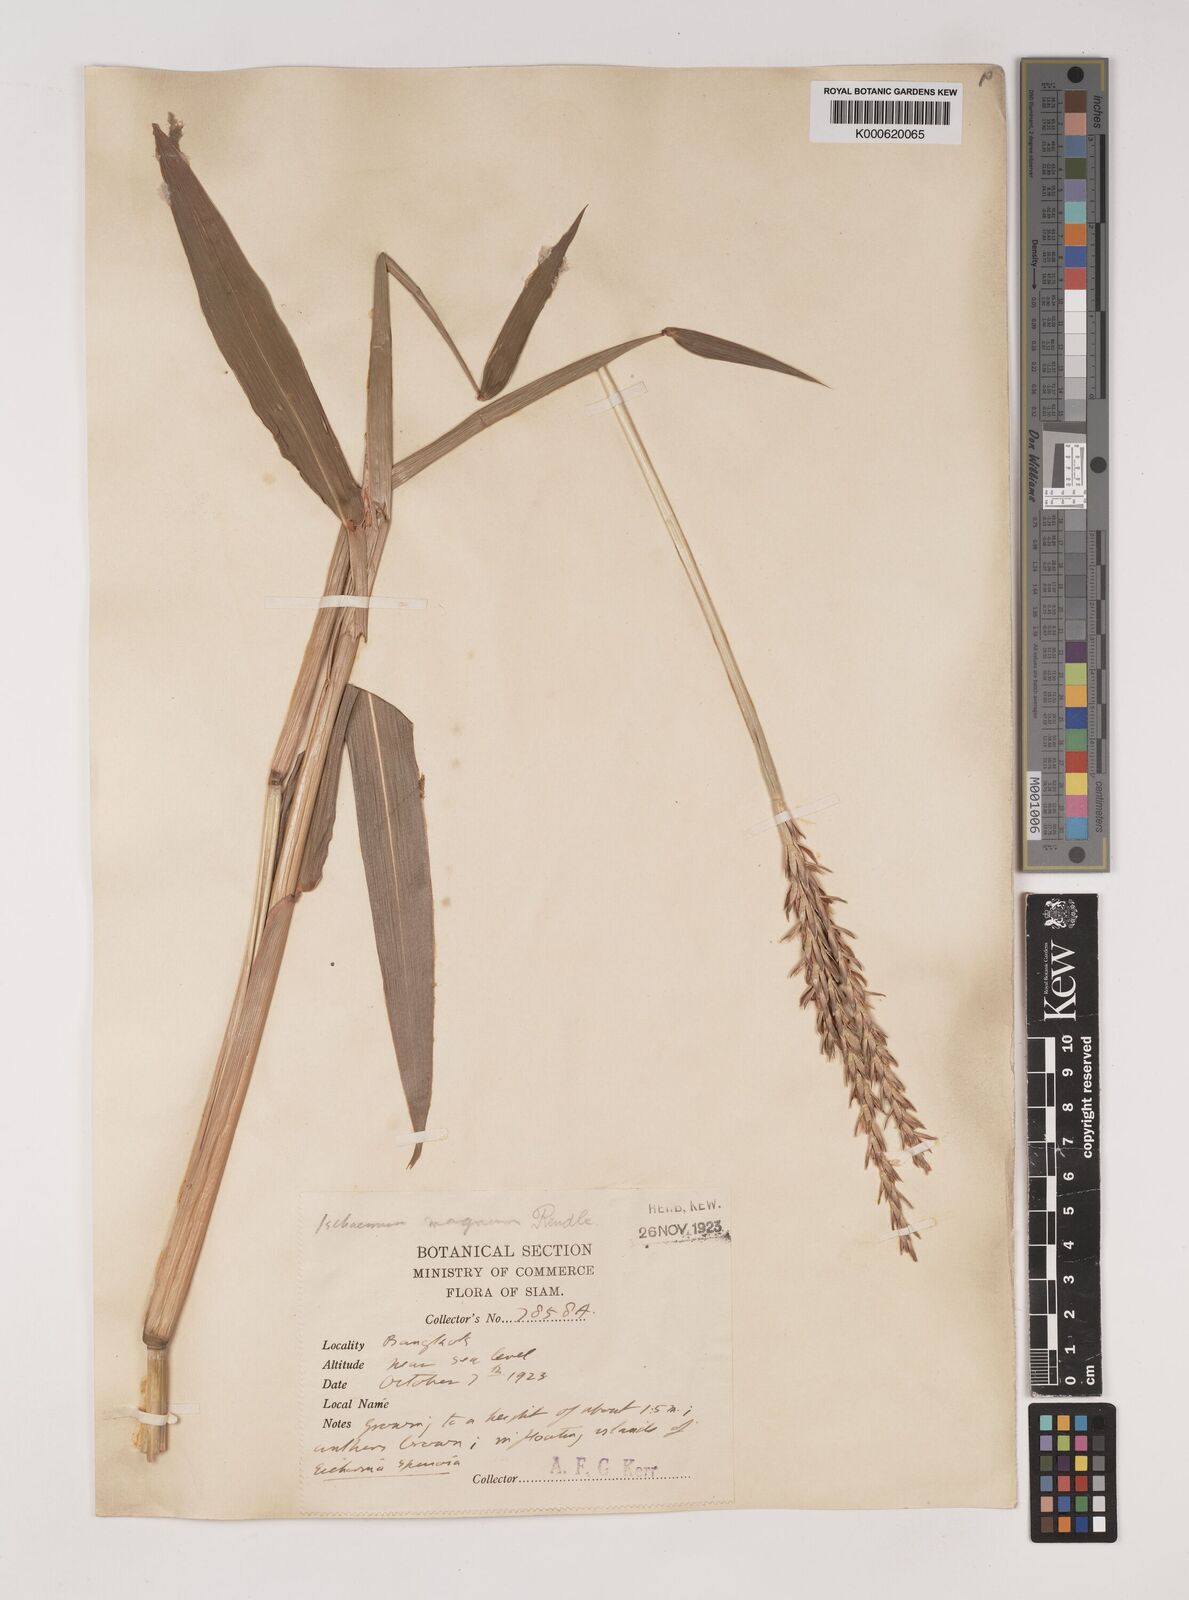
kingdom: Plantae
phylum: Tracheophyta
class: Liliopsida
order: Poales
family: Poaceae
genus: Ischaemum
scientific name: Ischaemum barbatum
